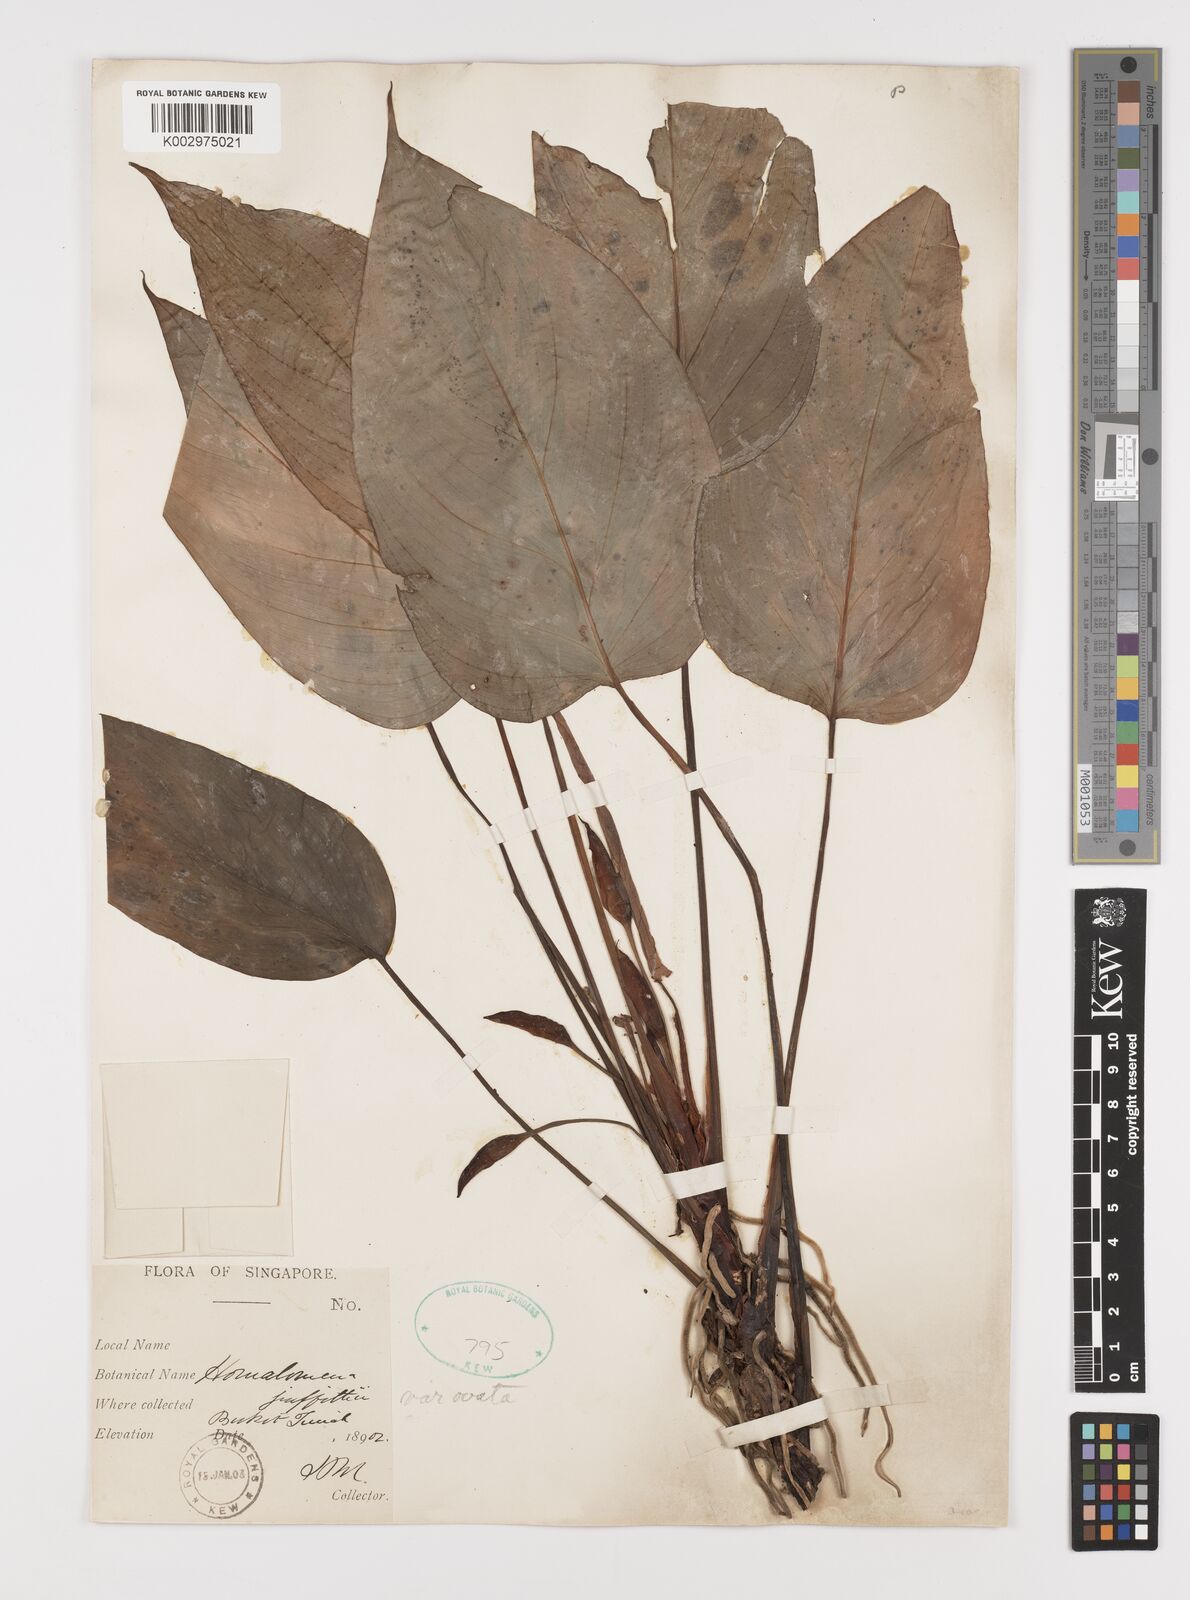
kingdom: Plantae
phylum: Tracheophyta
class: Liliopsida
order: Alismatales
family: Araceae
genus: Homalomena
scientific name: Homalomena griffithii
